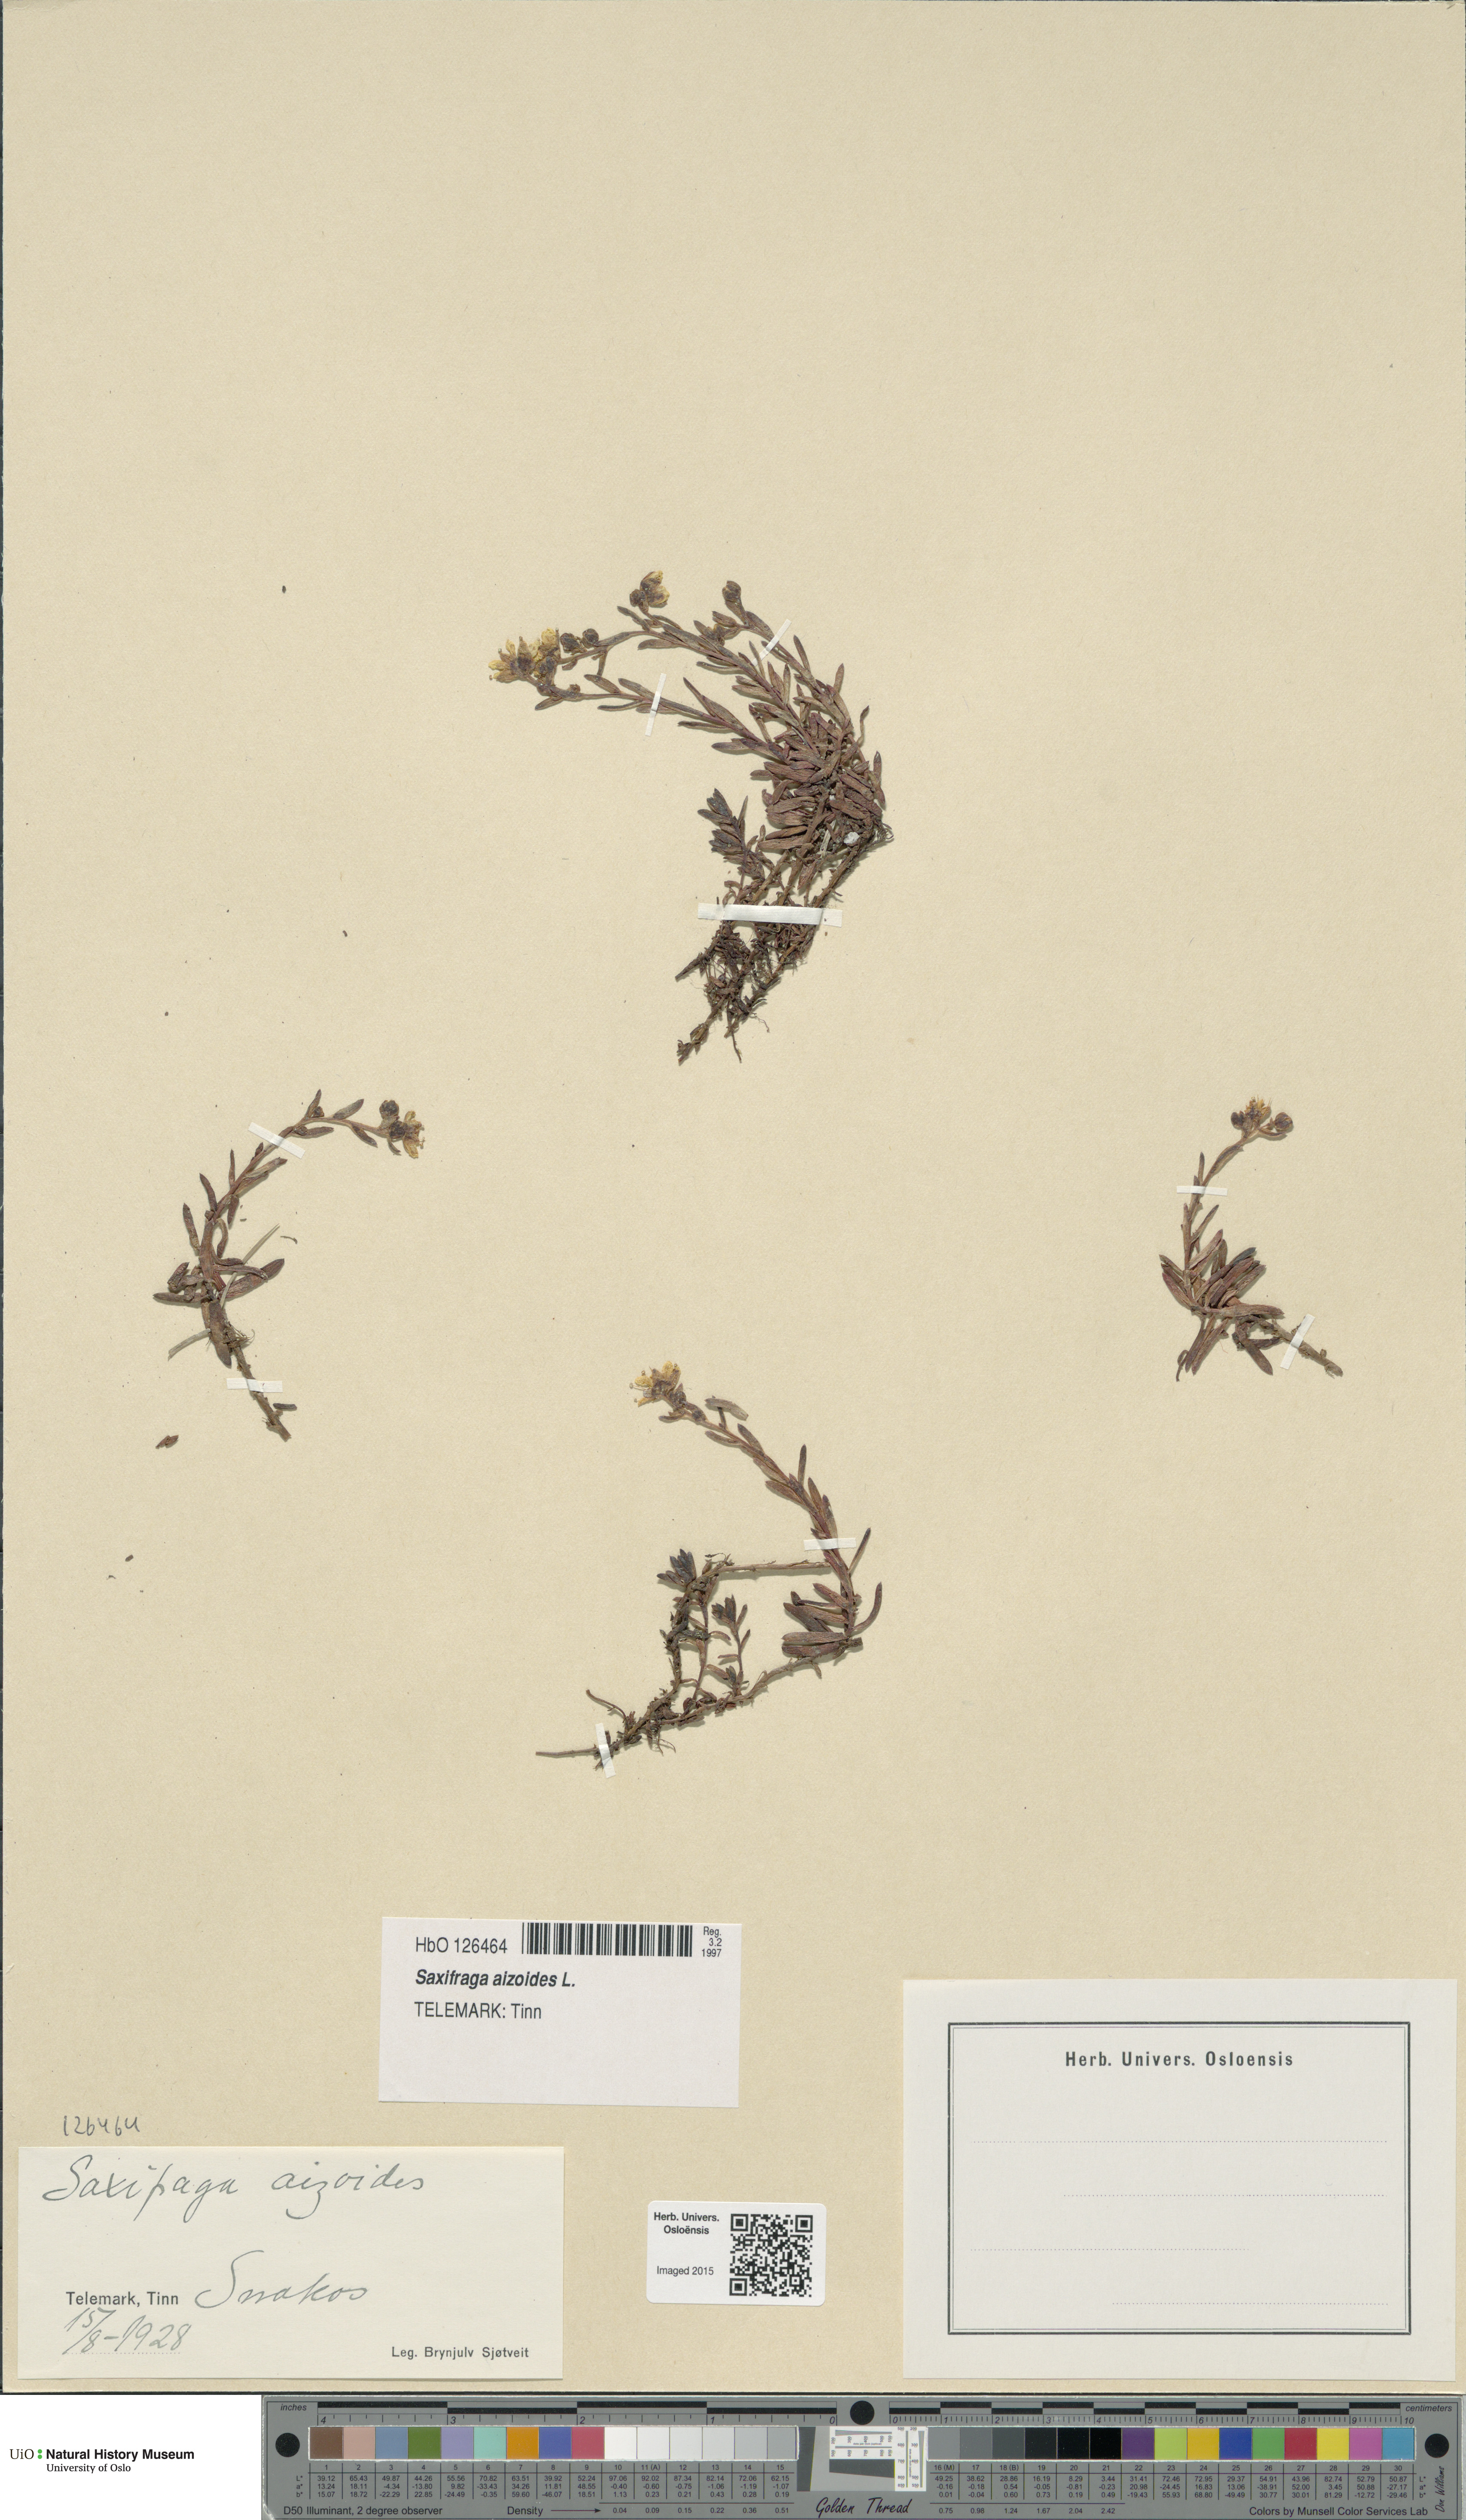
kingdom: Plantae
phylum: Tracheophyta
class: Magnoliopsida
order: Saxifragales
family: Saxifragaceae
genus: Saxifraga
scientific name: Saxifraga aizoides
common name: Yellow mountain saxifrage
